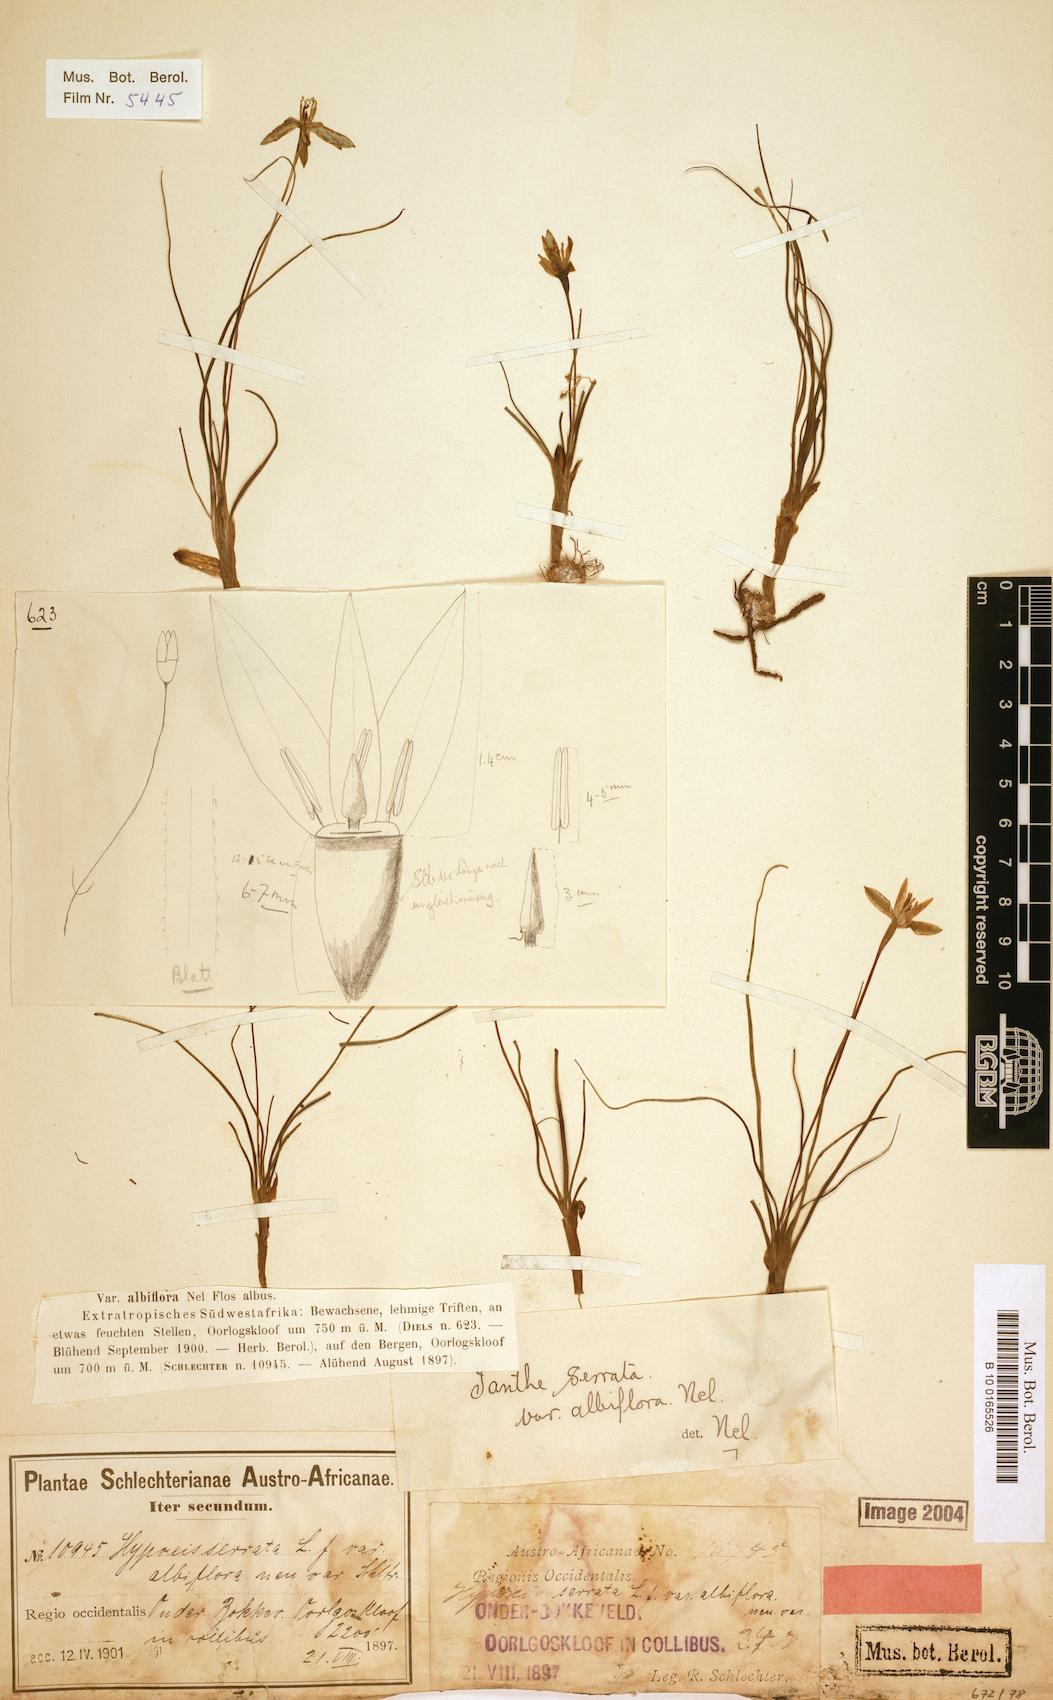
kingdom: Plantae
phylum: Tracheophyta
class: Liliopsida
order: Asparagales
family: Hypoxidaceae
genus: Pauridia
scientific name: Pauridia serrata
